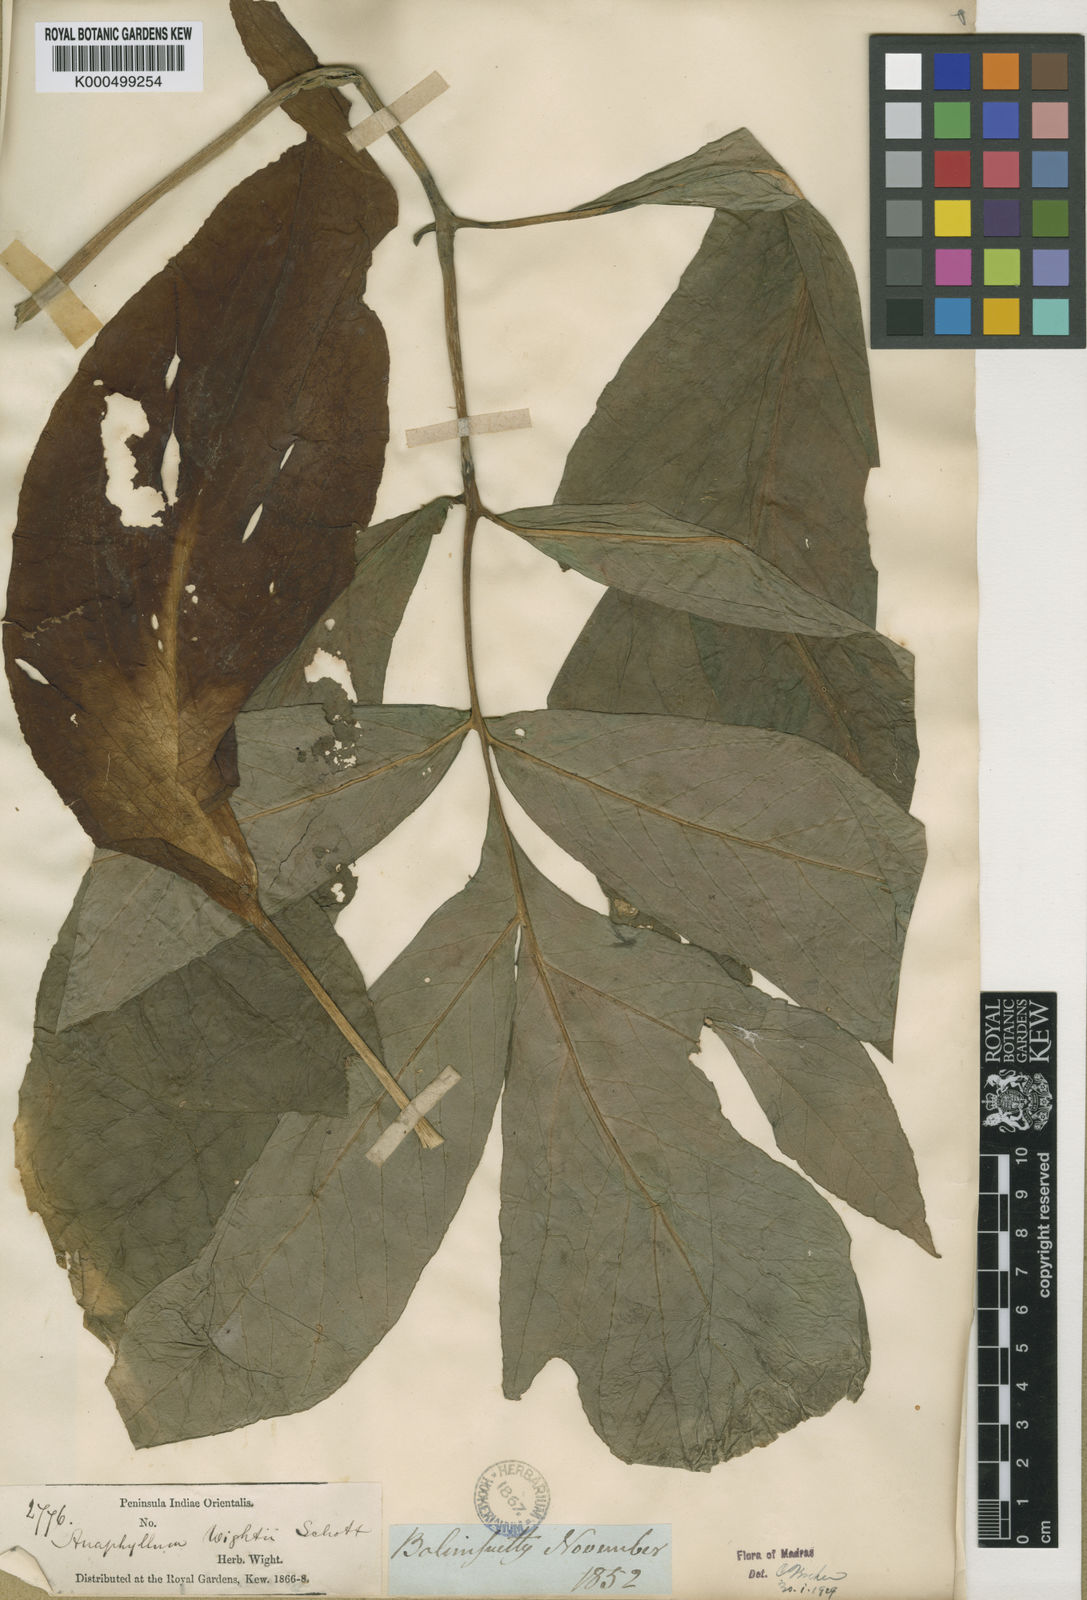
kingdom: Plantae
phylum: Tracheophyta
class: Liliopsida
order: Alismatales
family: Araceae
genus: Anaphyllum
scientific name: Anaphyllum wightii
